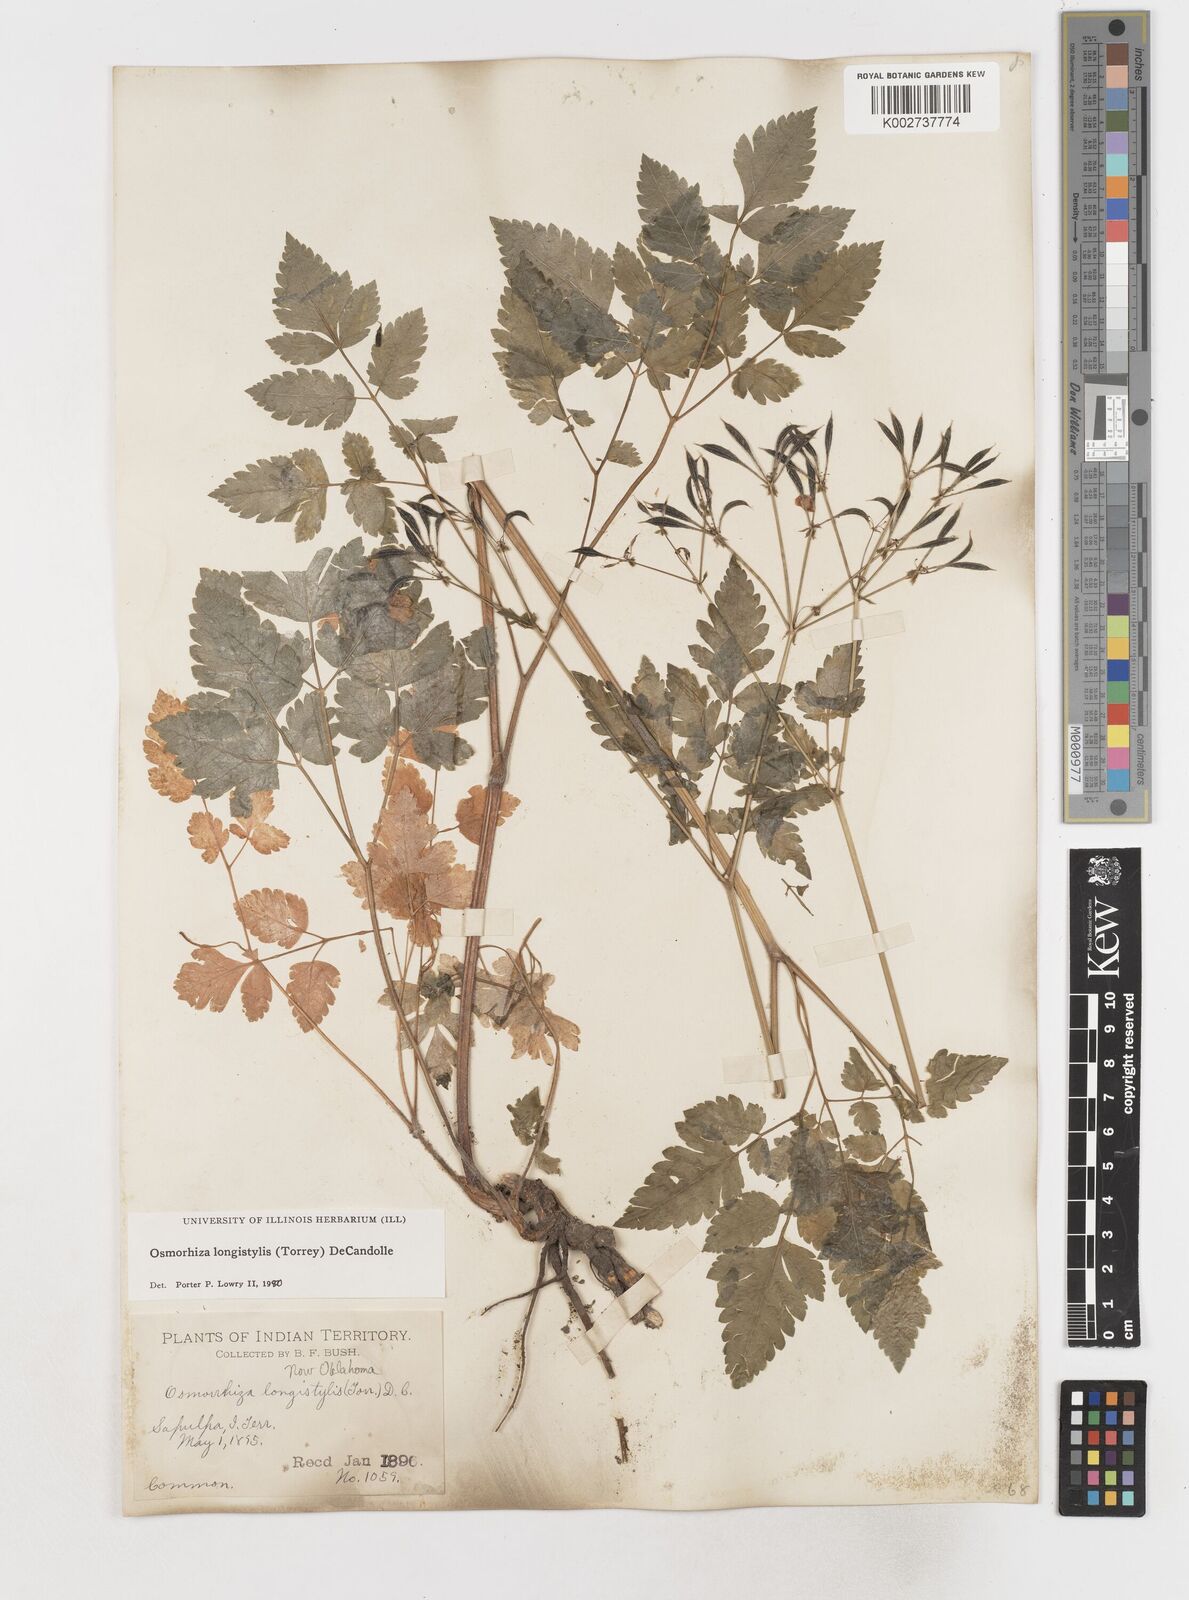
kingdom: Plantae
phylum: Tracheophyta
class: Magnoliopsida
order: Apiales
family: Apiaceae
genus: Osmorhiza
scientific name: Osmorhiza longistylis
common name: Smooth sweet cicely
